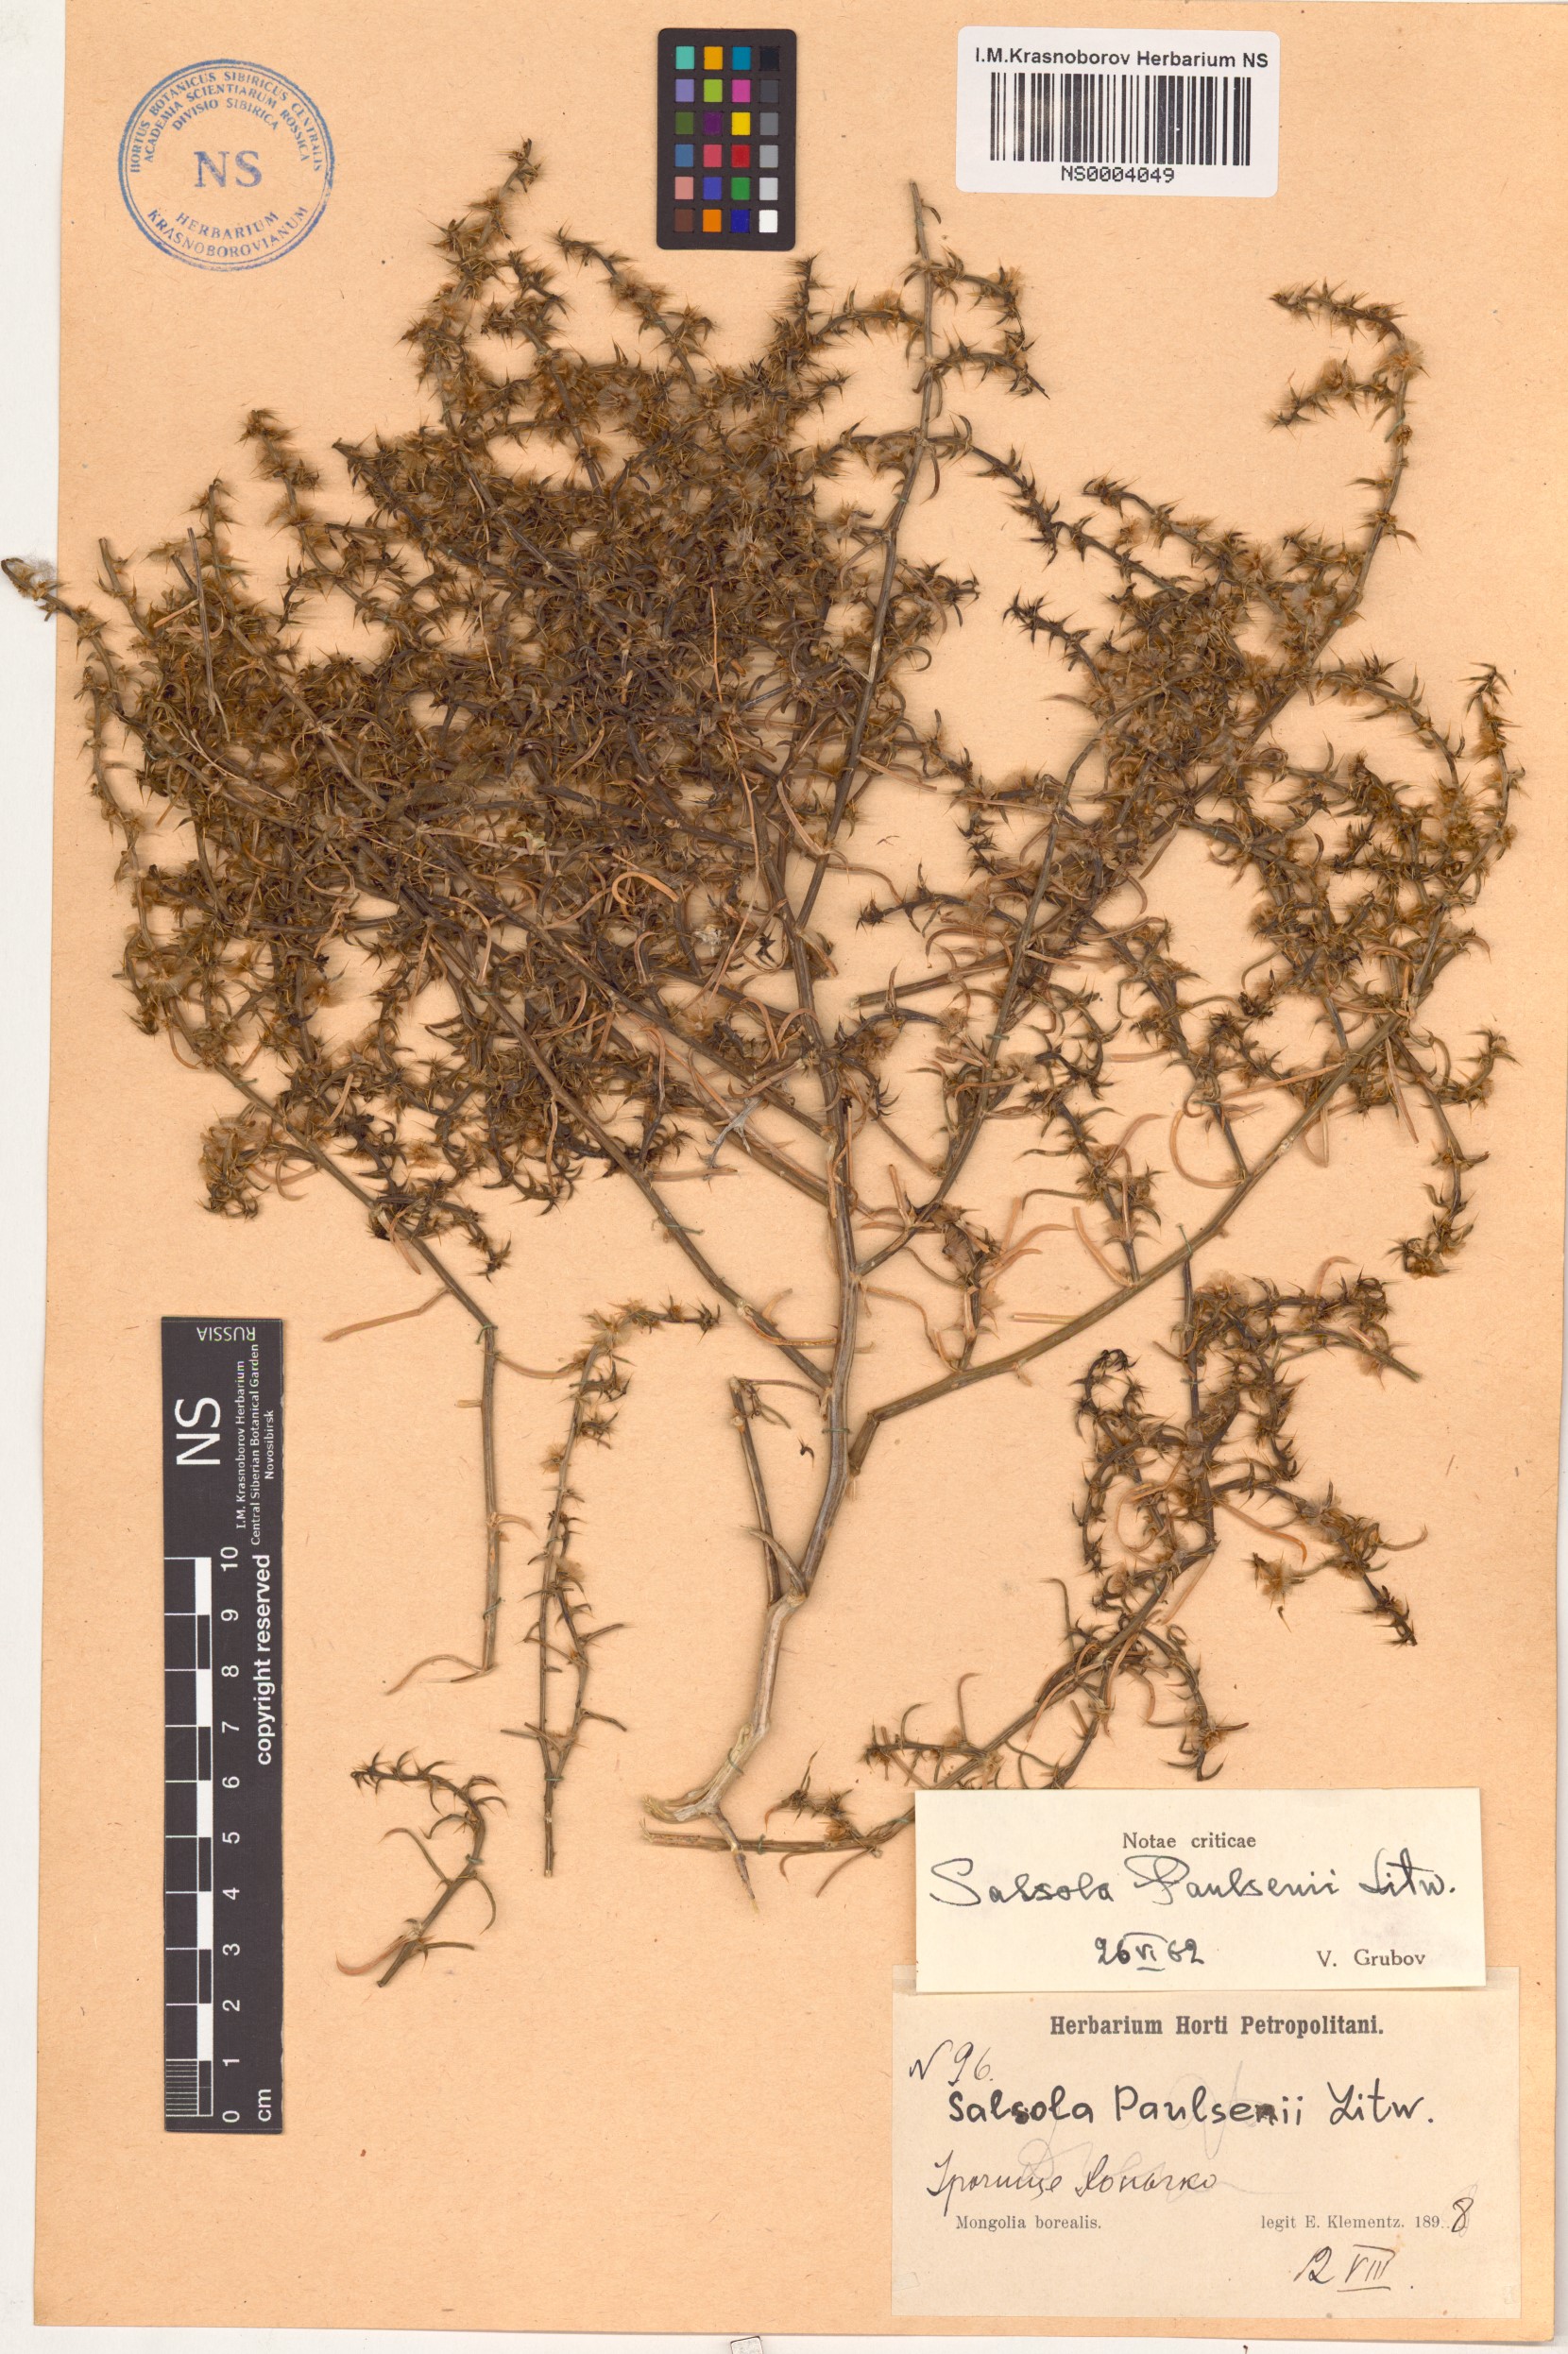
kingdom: Plantae
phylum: Tracheophyta
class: Magnoliopsida
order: Caryophyllales
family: Amaranthaceae
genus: Salsola
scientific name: Salsola paulsenii
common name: Barbwire russian thistle
